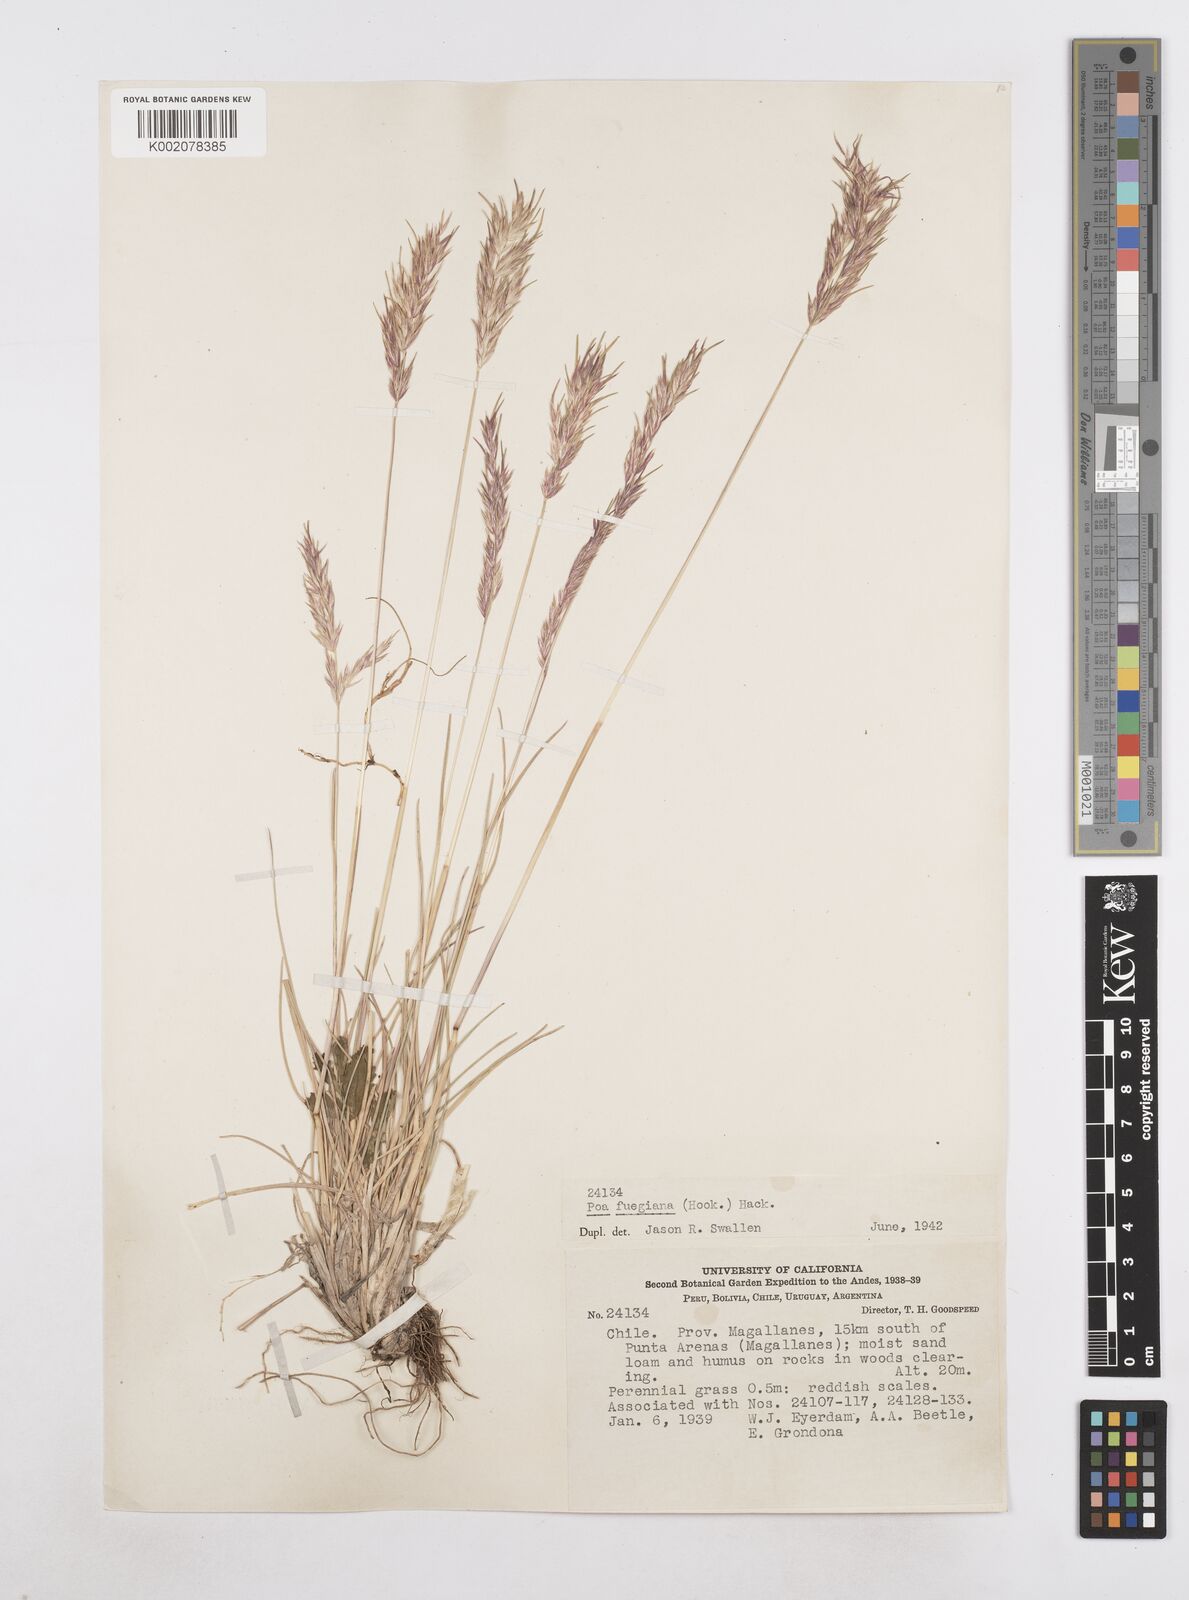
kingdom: Plantae
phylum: Tracheophyta
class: Liliopsida
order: Poales
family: Poaceae
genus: Poa
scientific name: Poa alopecurus
